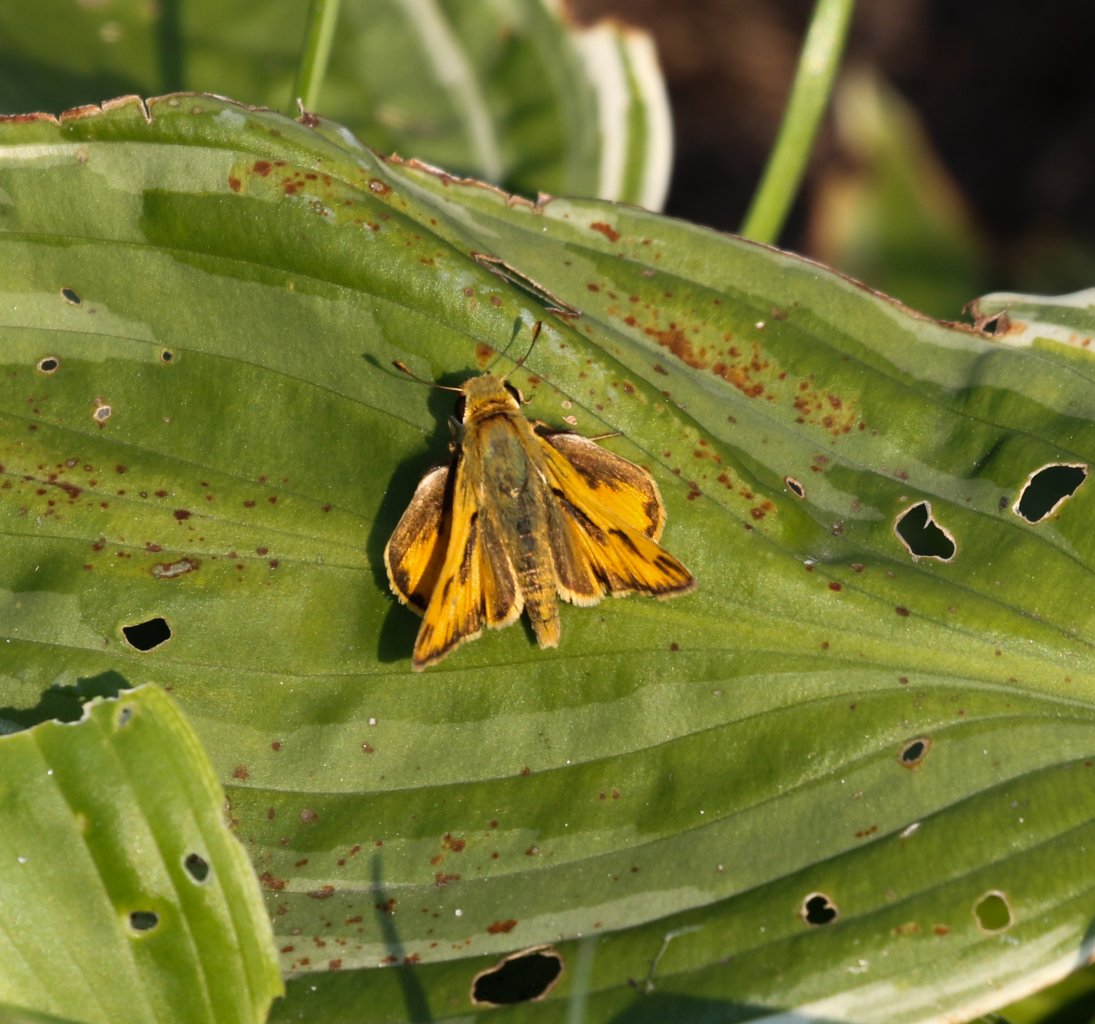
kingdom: Animalia
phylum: Arthropoda
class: Insecta
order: Lepidoptera
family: Hesperiidae
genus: Hylephila
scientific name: Hylephila phyleus
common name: Fiery Skipper
